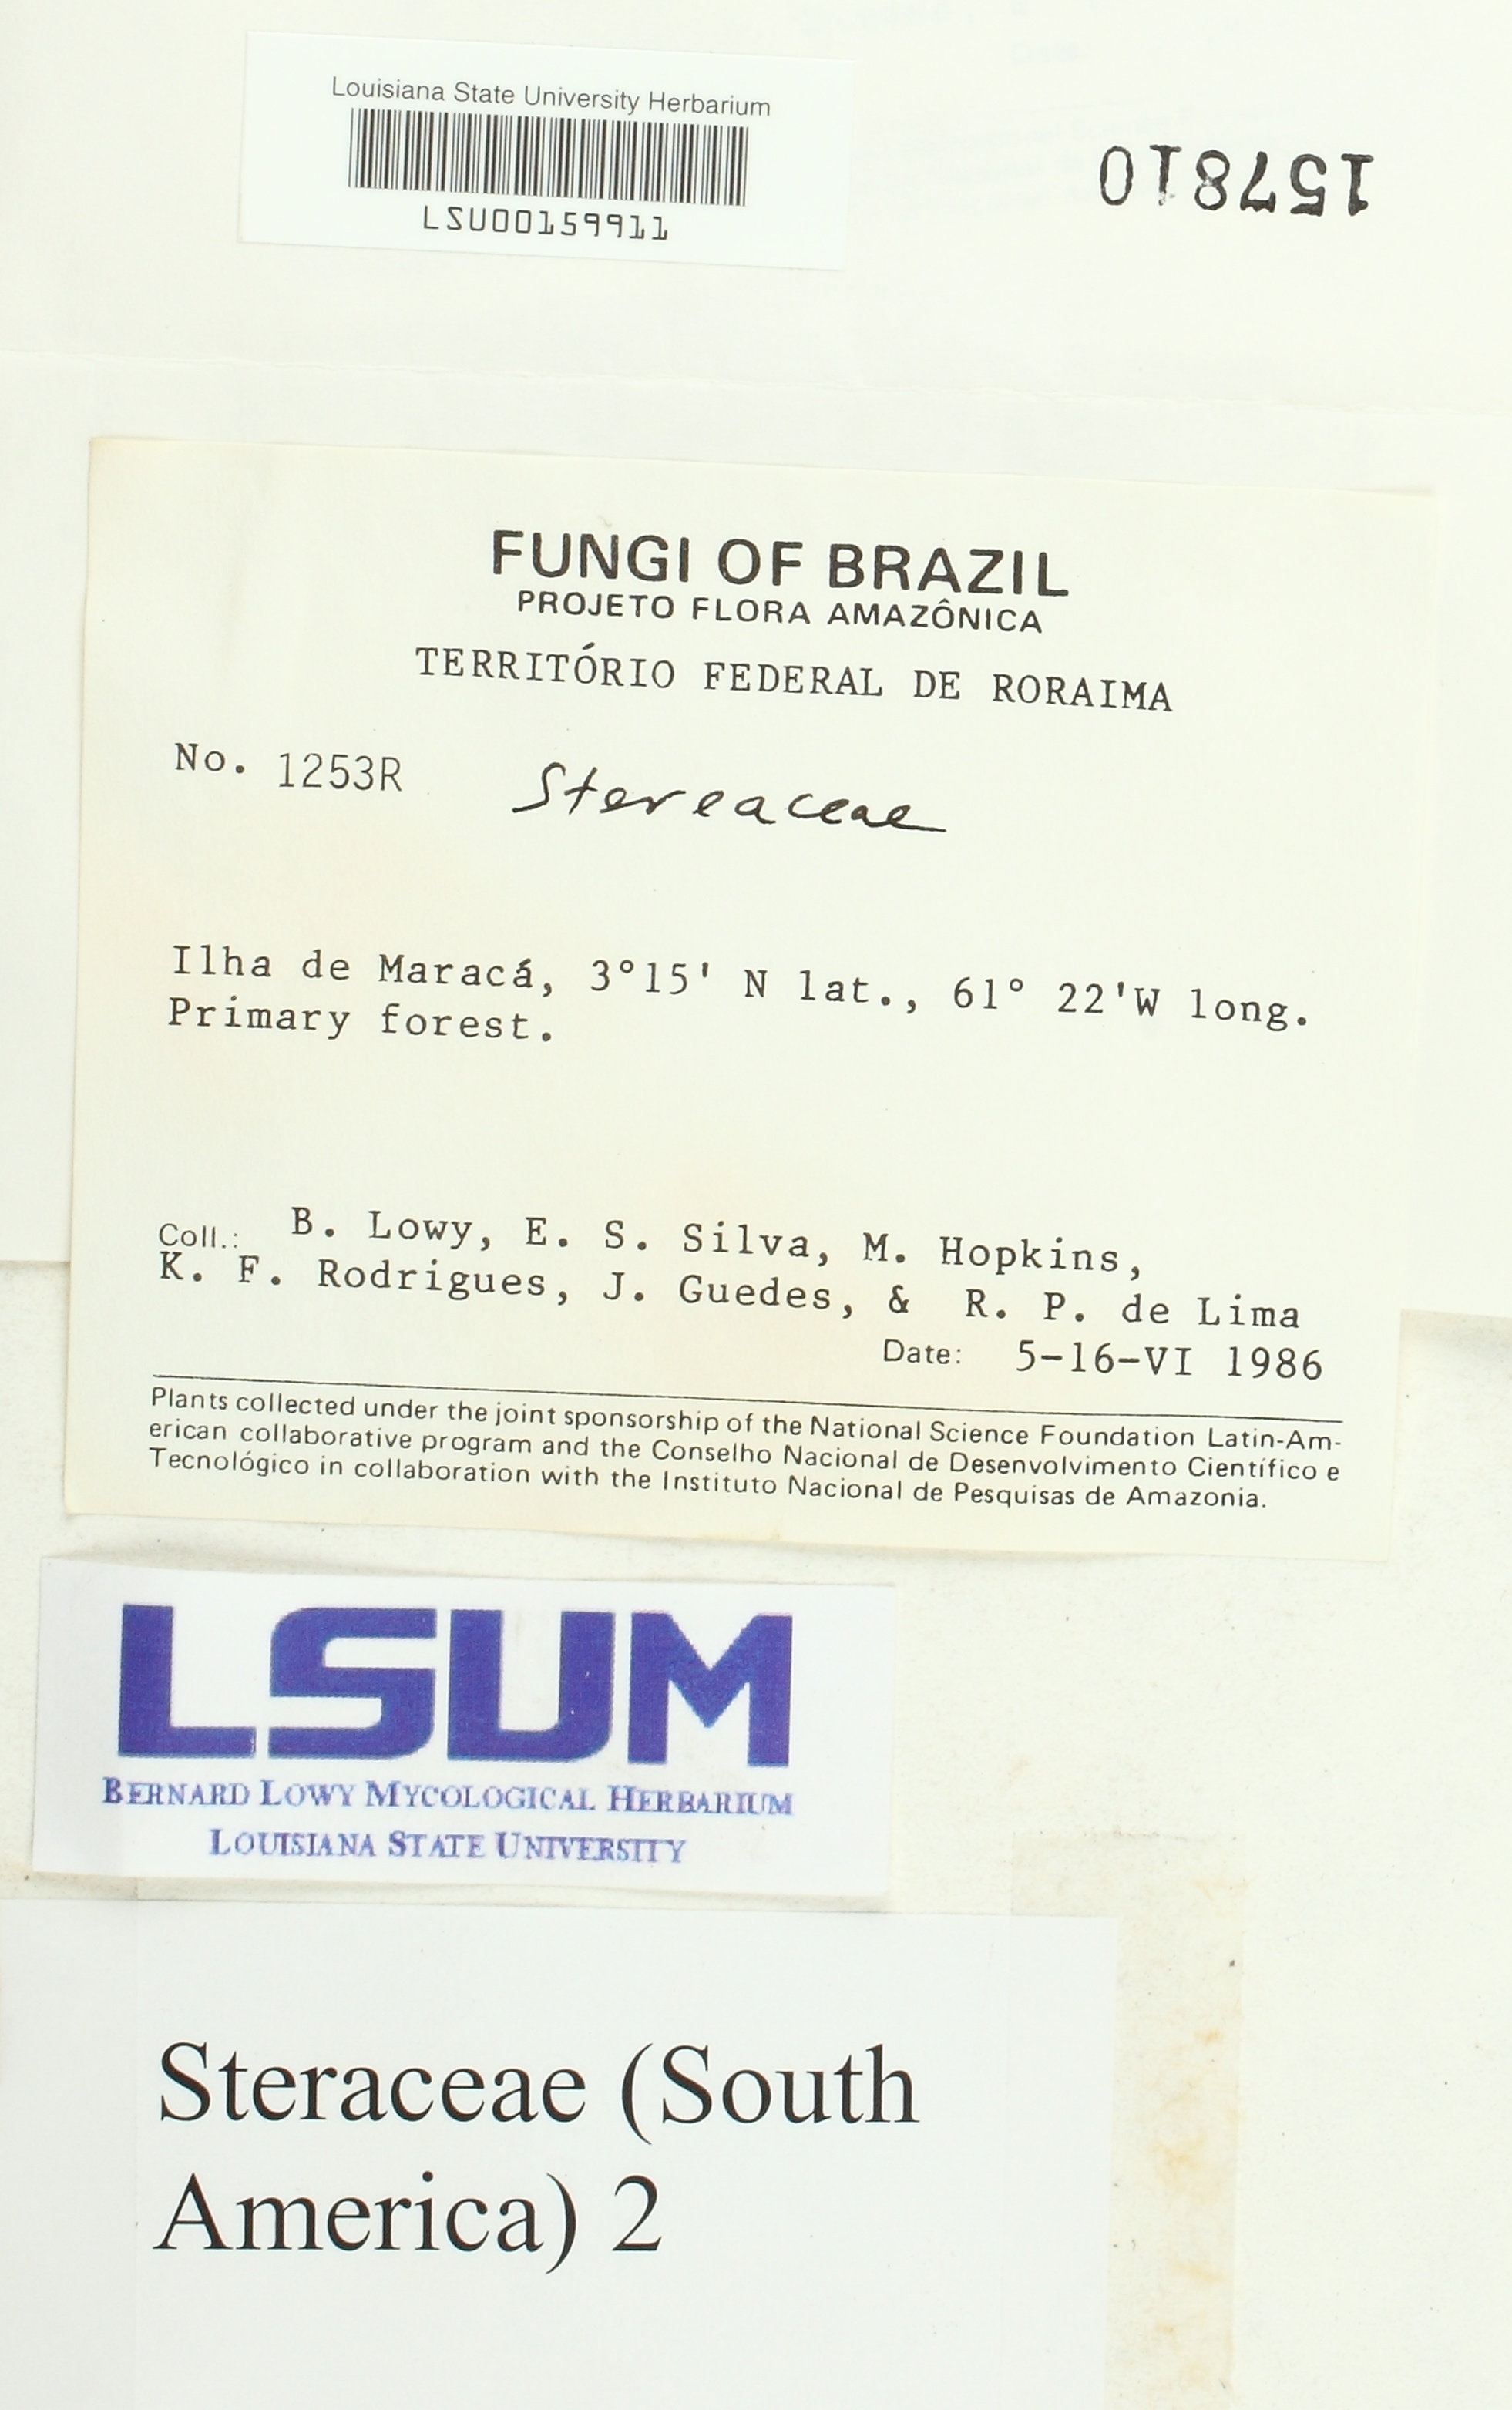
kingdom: Fungi
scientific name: Fungi
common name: Fungi
